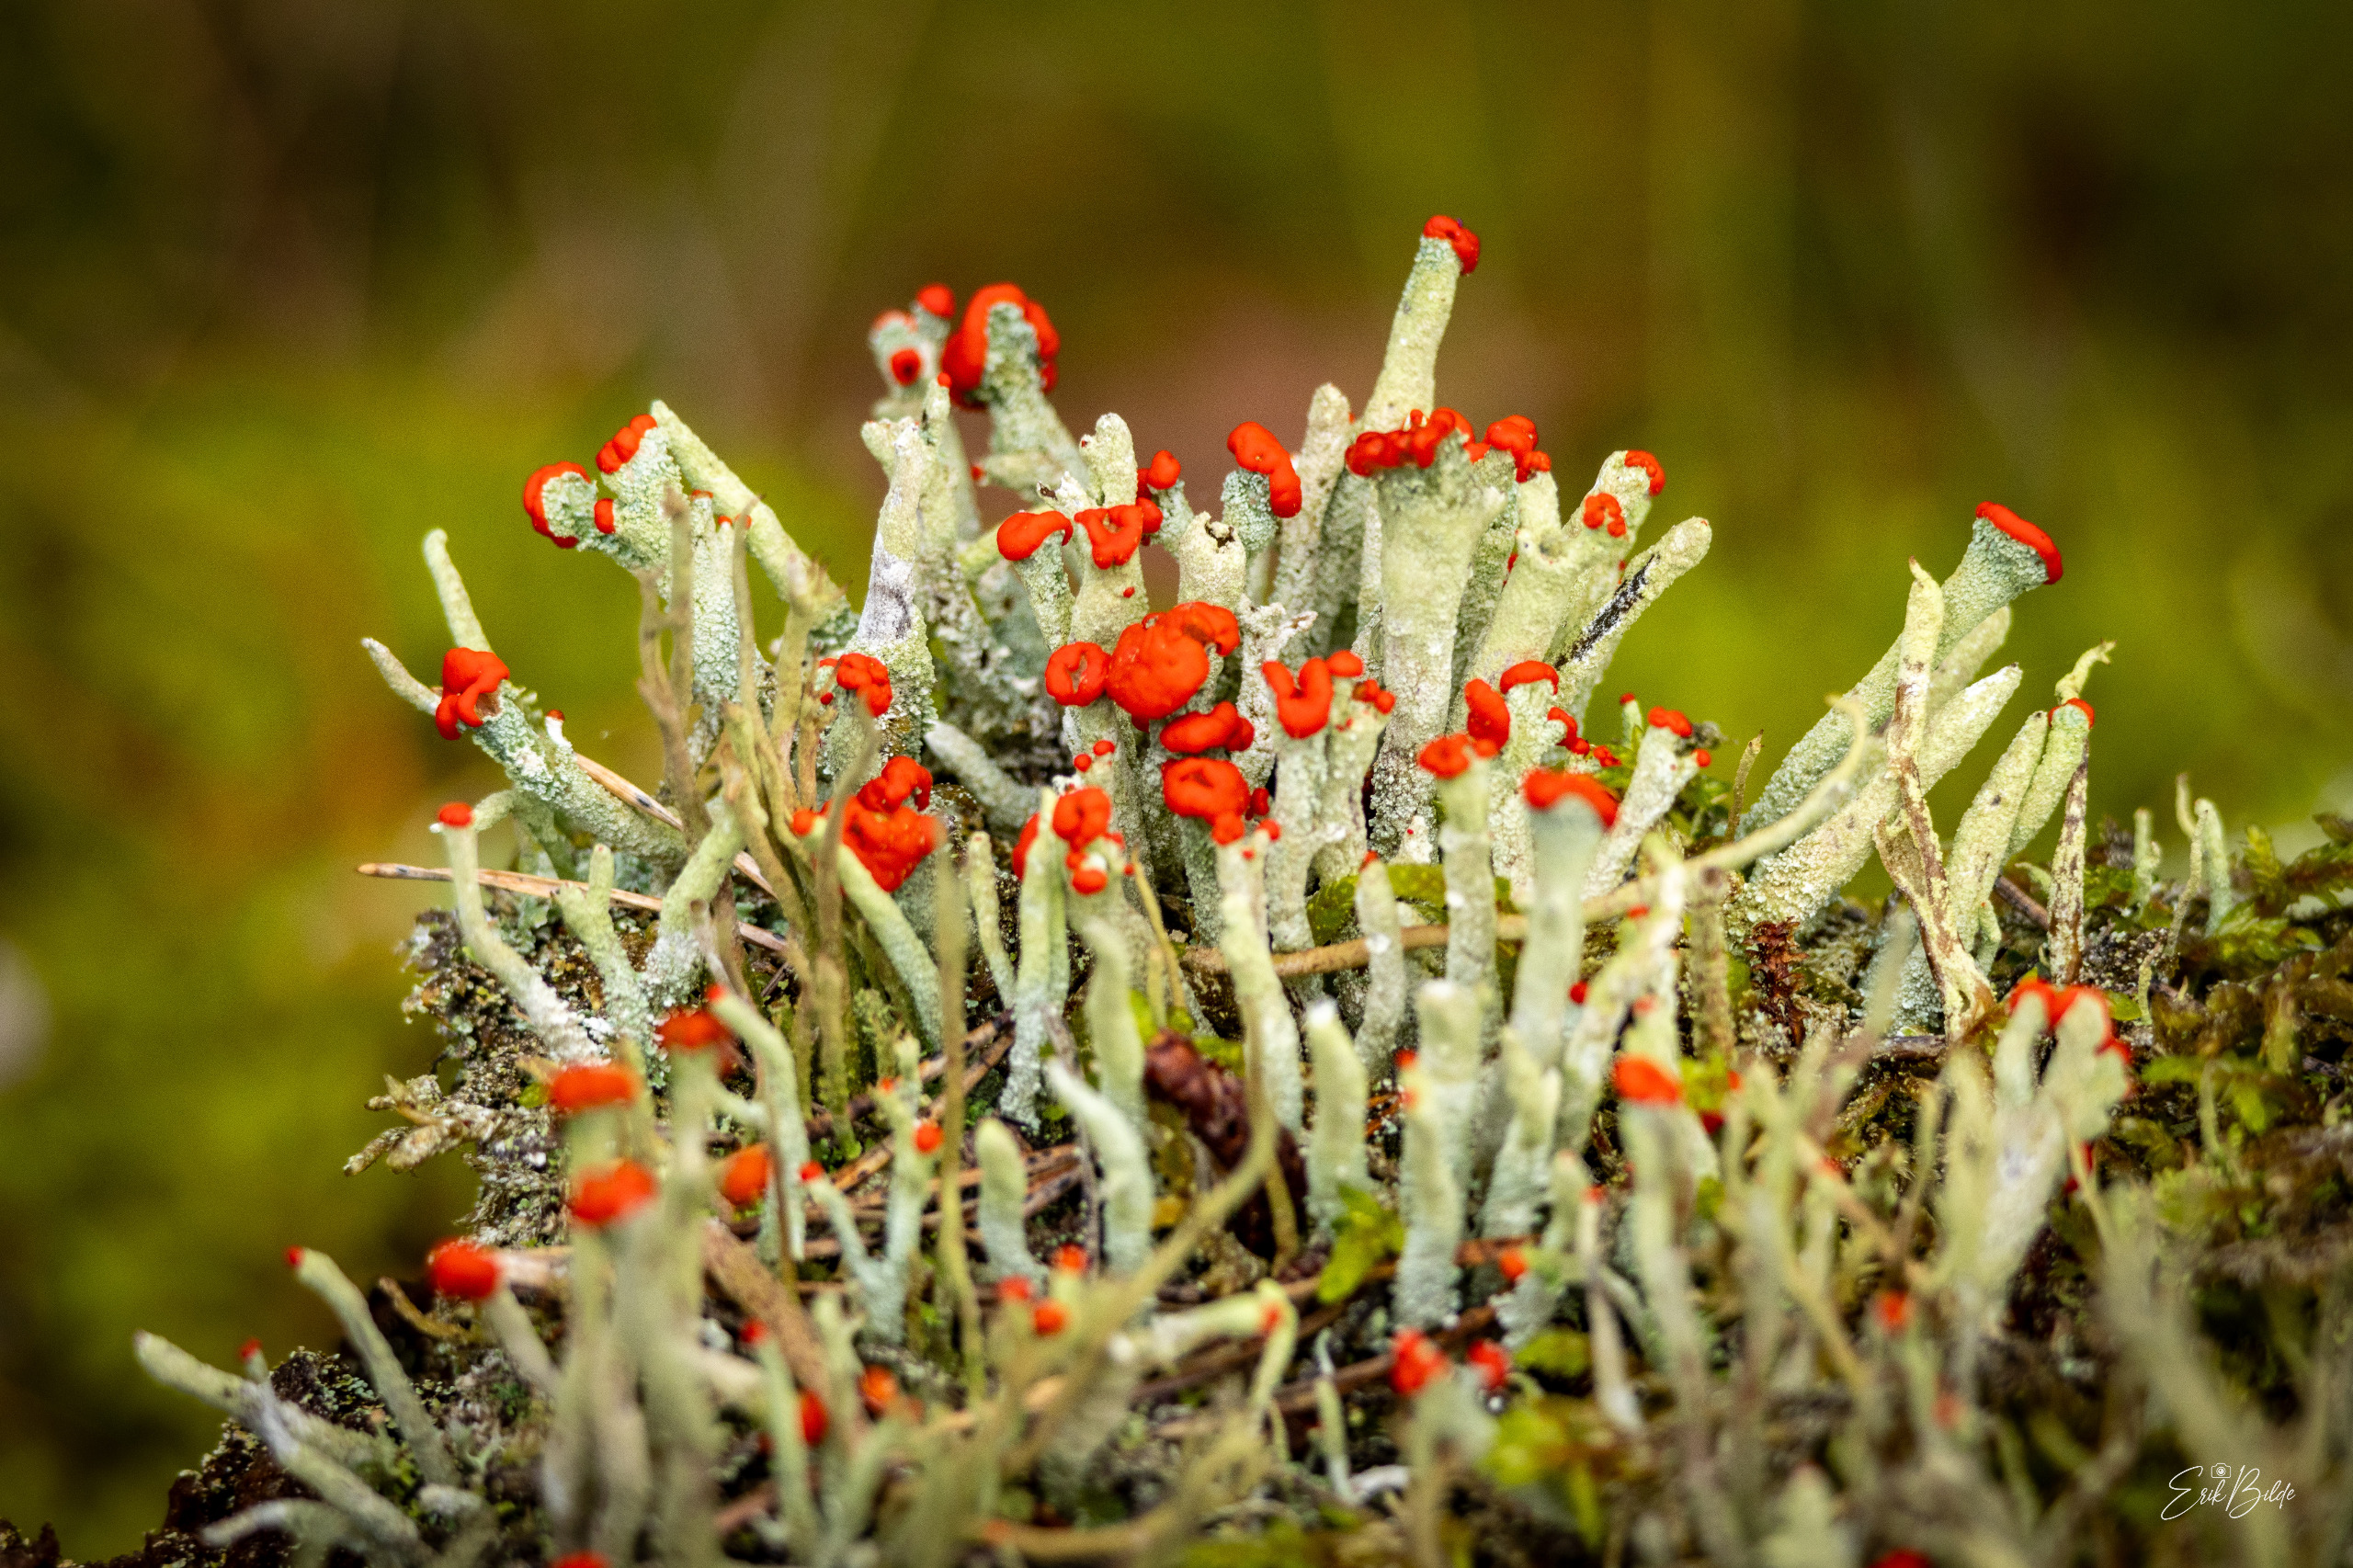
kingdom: Fungi
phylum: Ascomycota
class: Lecanoromycetes
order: Lecanorales
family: Cladoniaceae
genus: Cladonia
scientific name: Cladonia macilenta
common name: Indsvunden bægerlav
